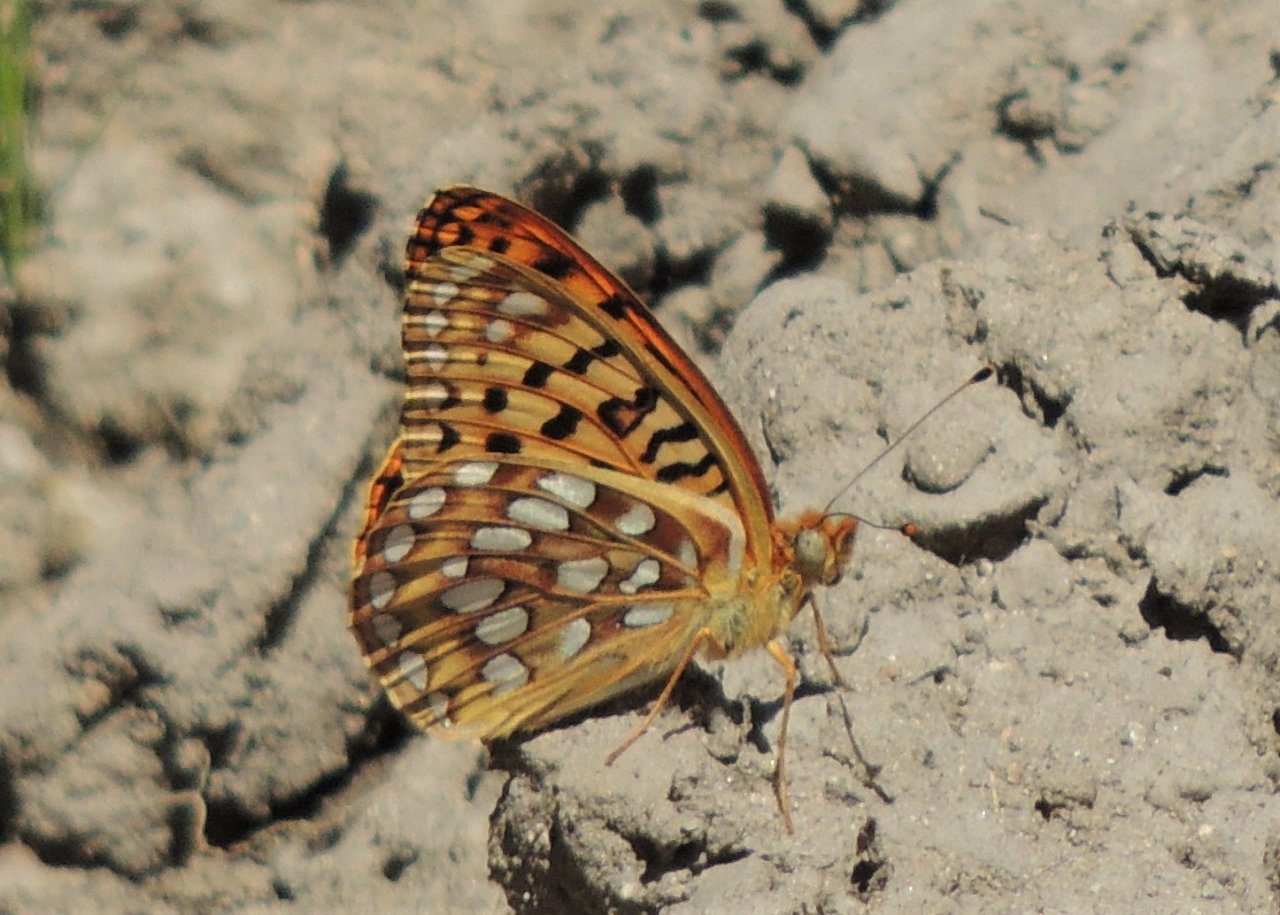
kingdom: Animalia
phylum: Arthropoda
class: Insecta
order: Lepidoptera
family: Nymphalidae
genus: Speyeria
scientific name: Speyeria zerene
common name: Zerene Fritillary
